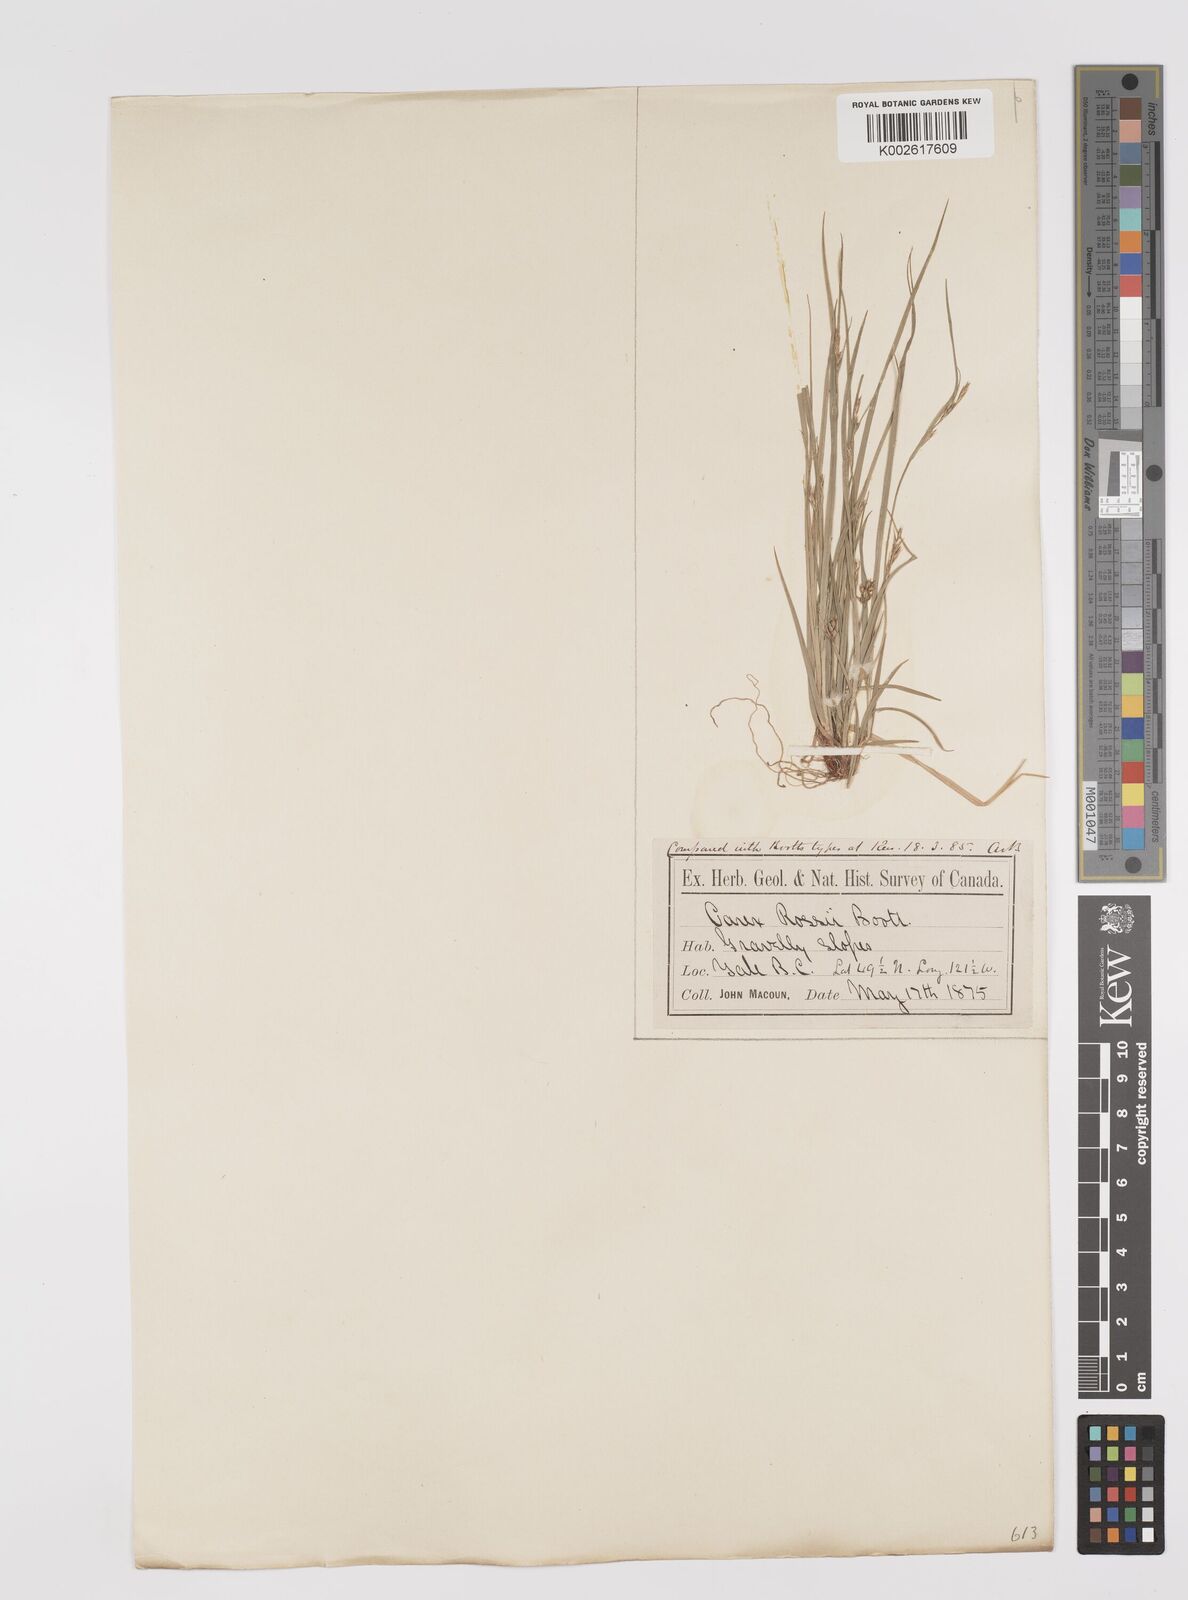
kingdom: Plantae
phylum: Tracheophyta
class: Liliopsida
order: Poales
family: Cyperaceae
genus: Carex
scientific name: Carex rossii
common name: Ross' sedge
